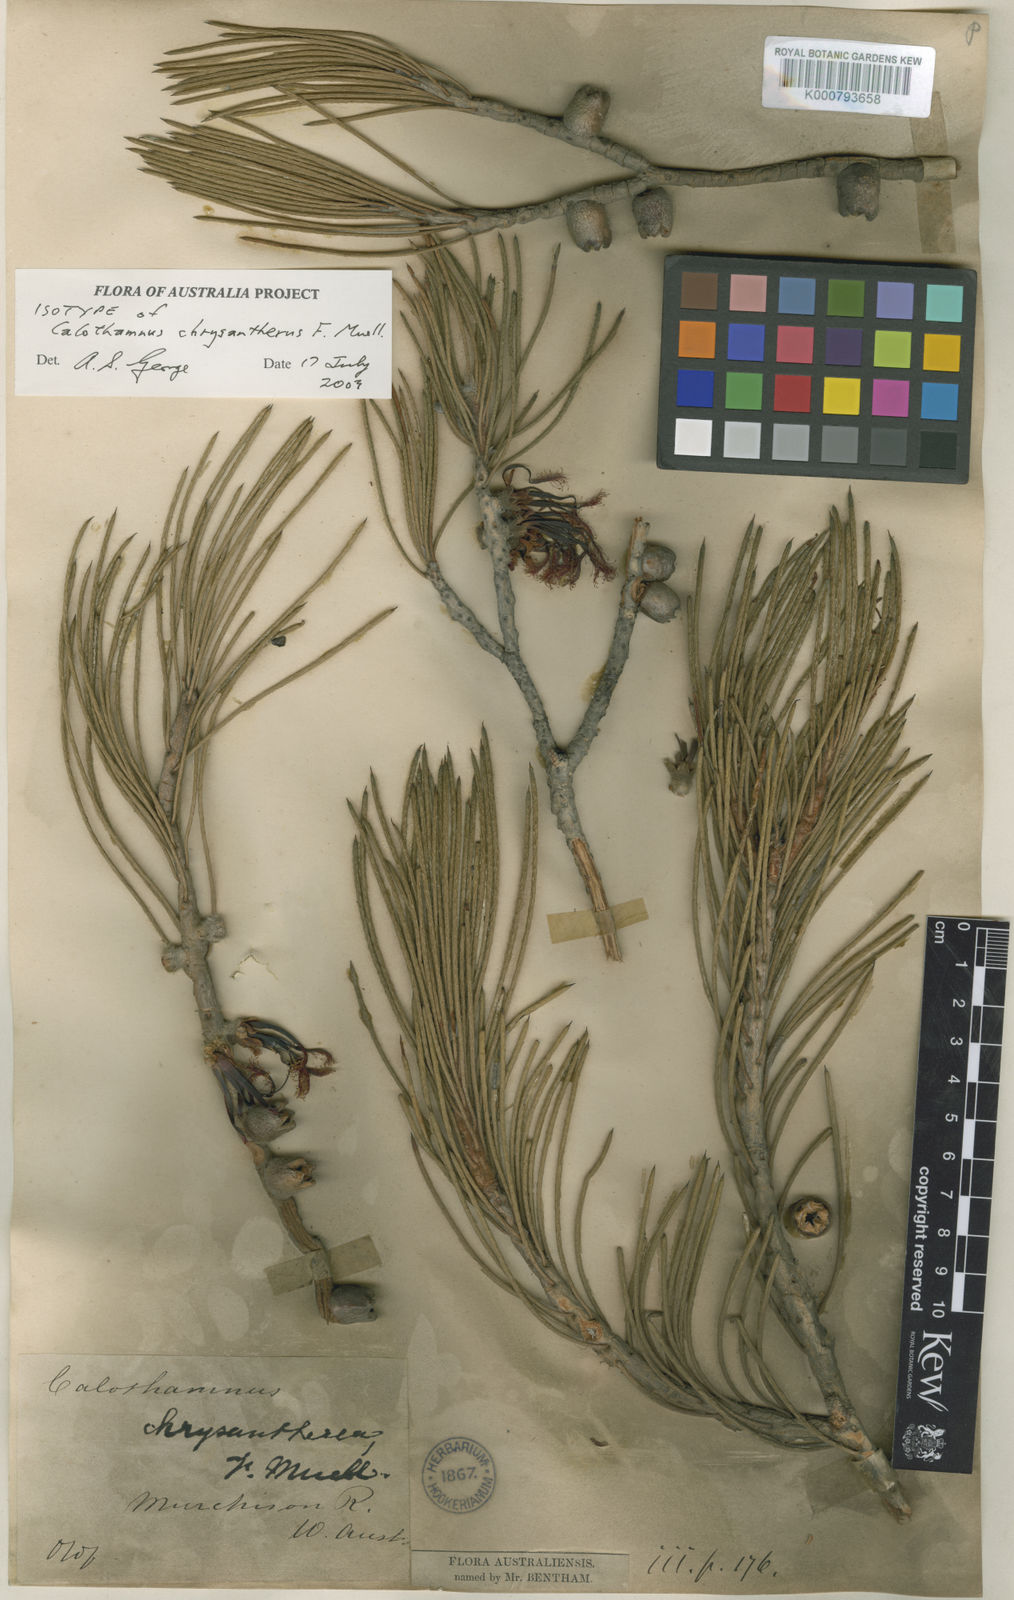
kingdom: Plantae
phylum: Tracheophyta
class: Magnoliopsida
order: Myrtales
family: Myrtaceae
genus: Melaleuca
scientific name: Melaleuca chrysantherea
